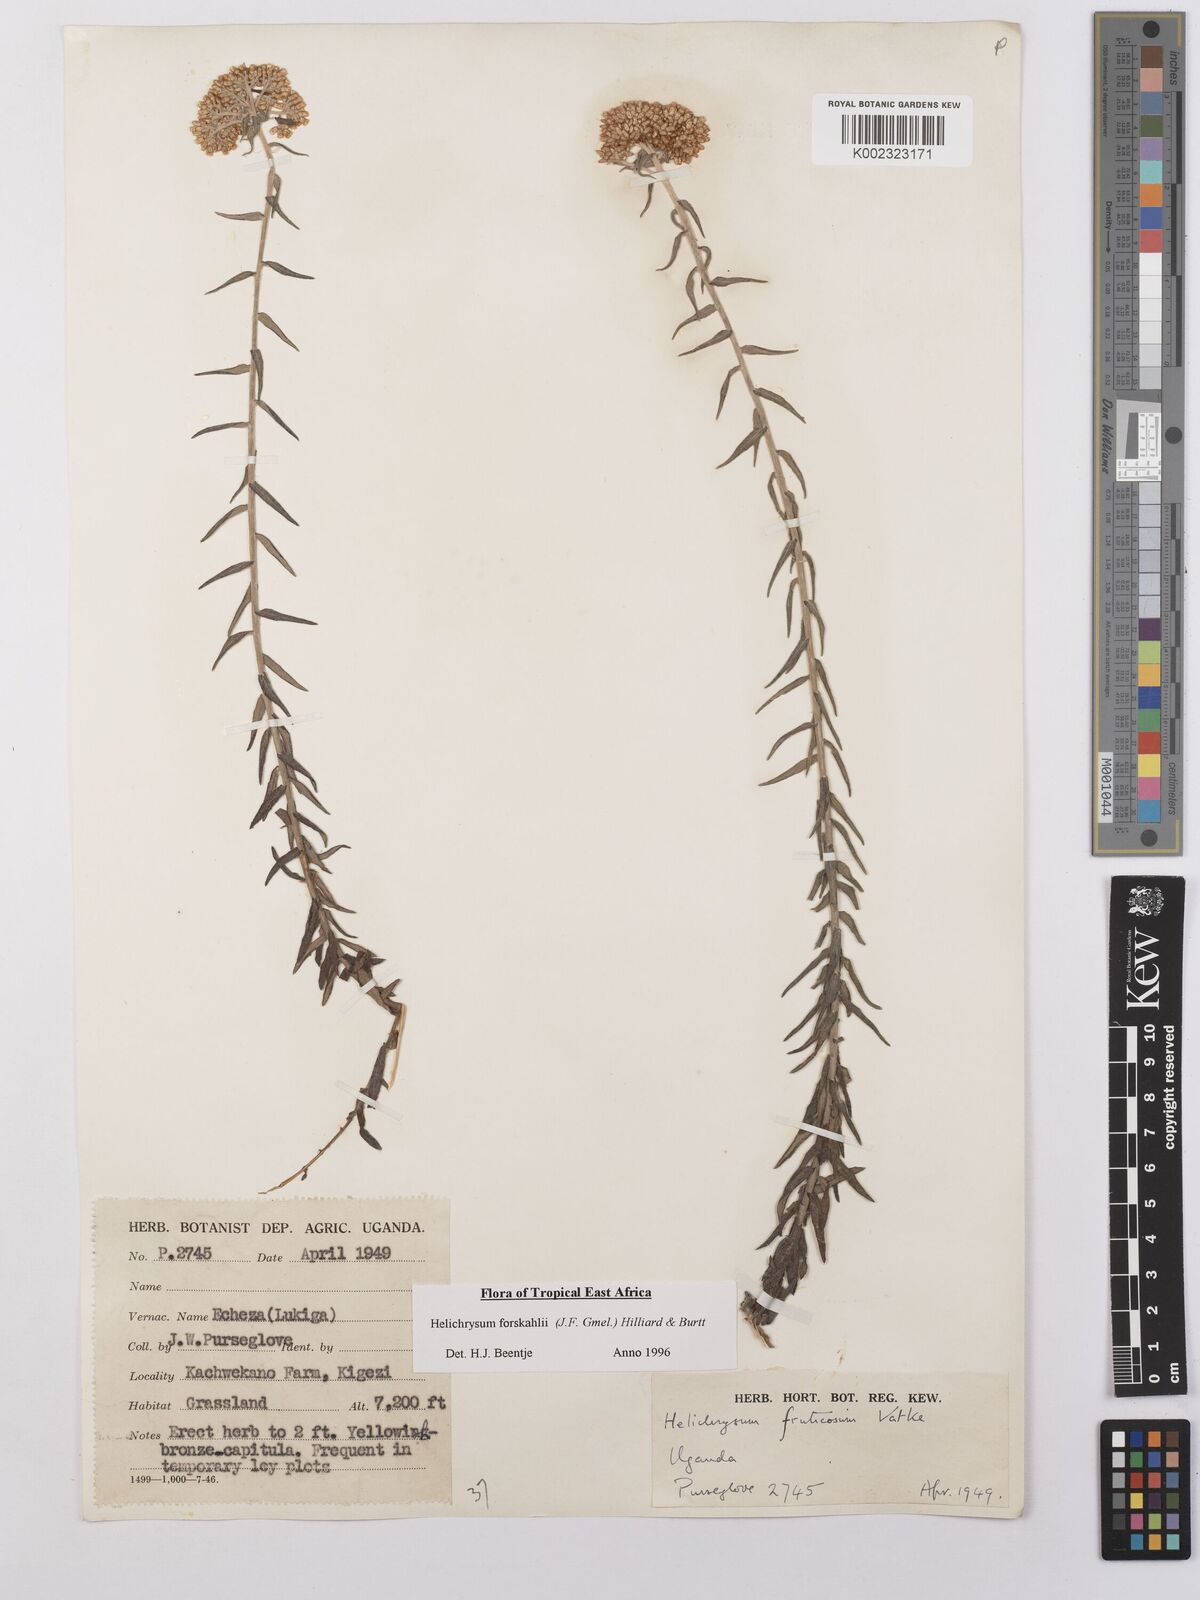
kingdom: Plantae
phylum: Tracheophyta
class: Magnoliopsida
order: Asterales
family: Asteraceae
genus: Helichrysum
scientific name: Helichrysum forskahlii
